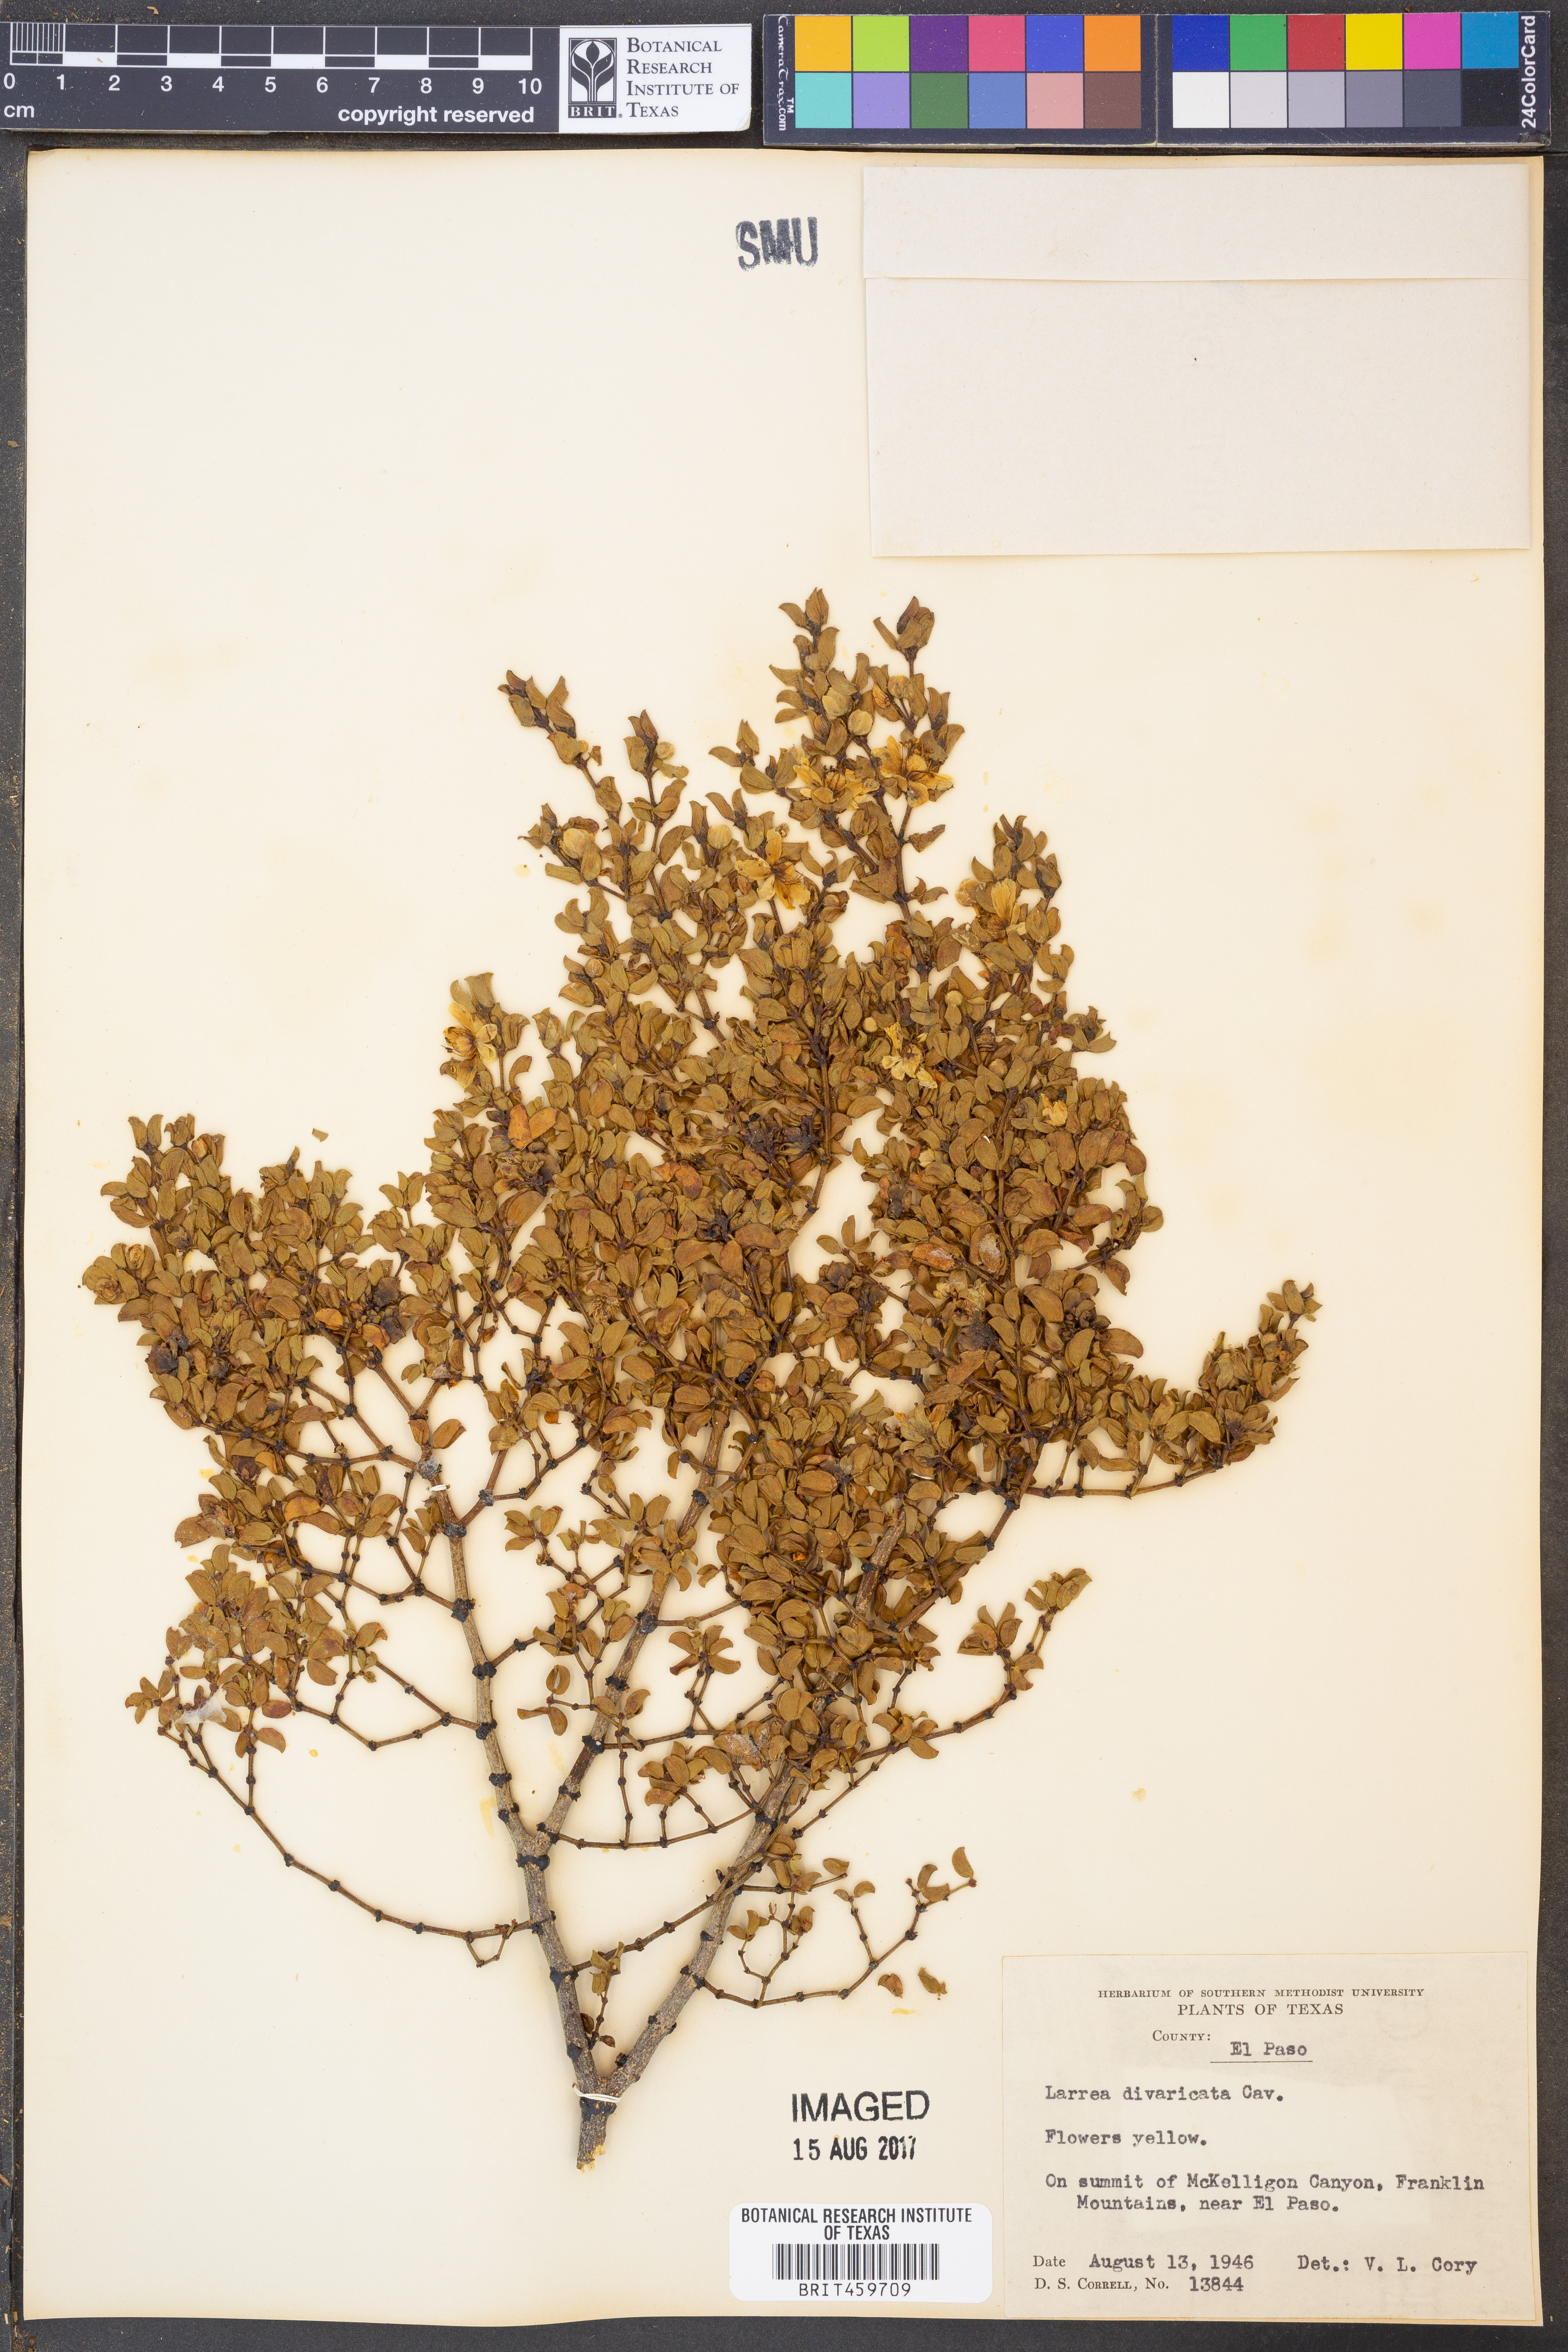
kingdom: Plantae
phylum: Tracheophyta
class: Magnoliopsida
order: Zygophyllales
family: Zygophyllaceae
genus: Larrea
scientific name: Larrea divaricata
